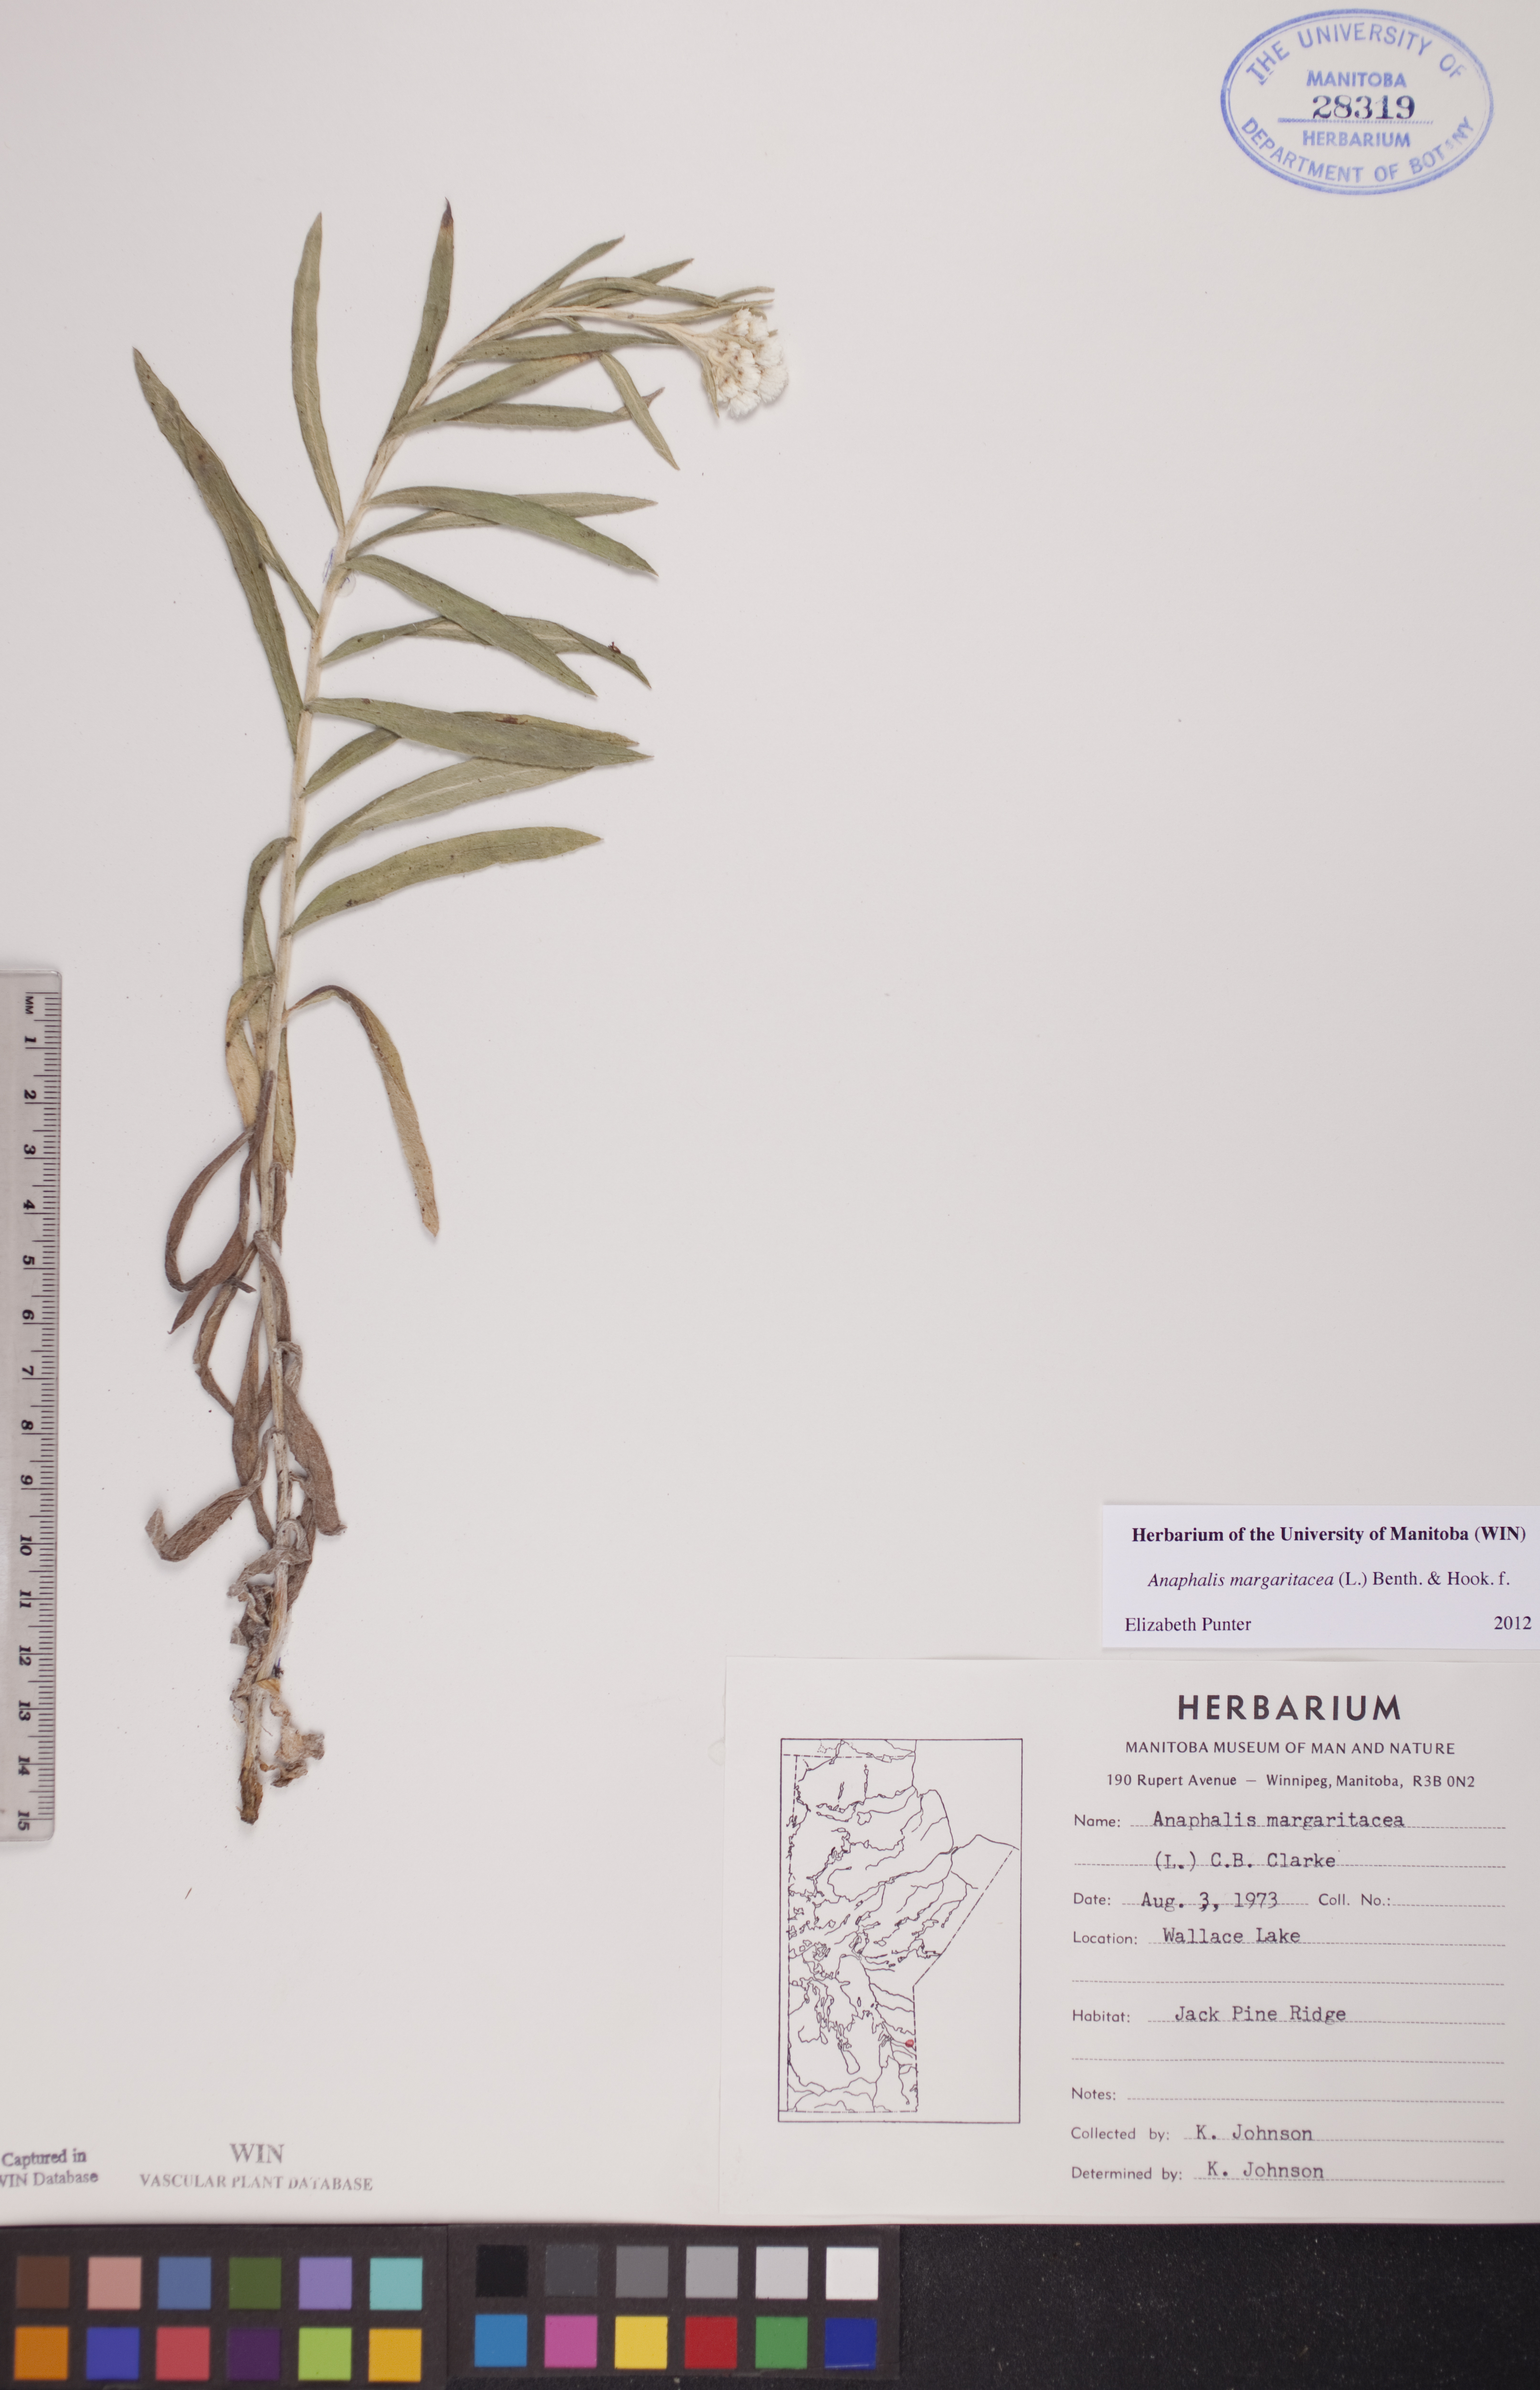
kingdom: Plantae
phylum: Tracheophyta
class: Magnoliopsida
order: Asterales
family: Asteraceae
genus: Anaphalis
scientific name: Anaphalis margaritacea
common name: Pearly everlasting
